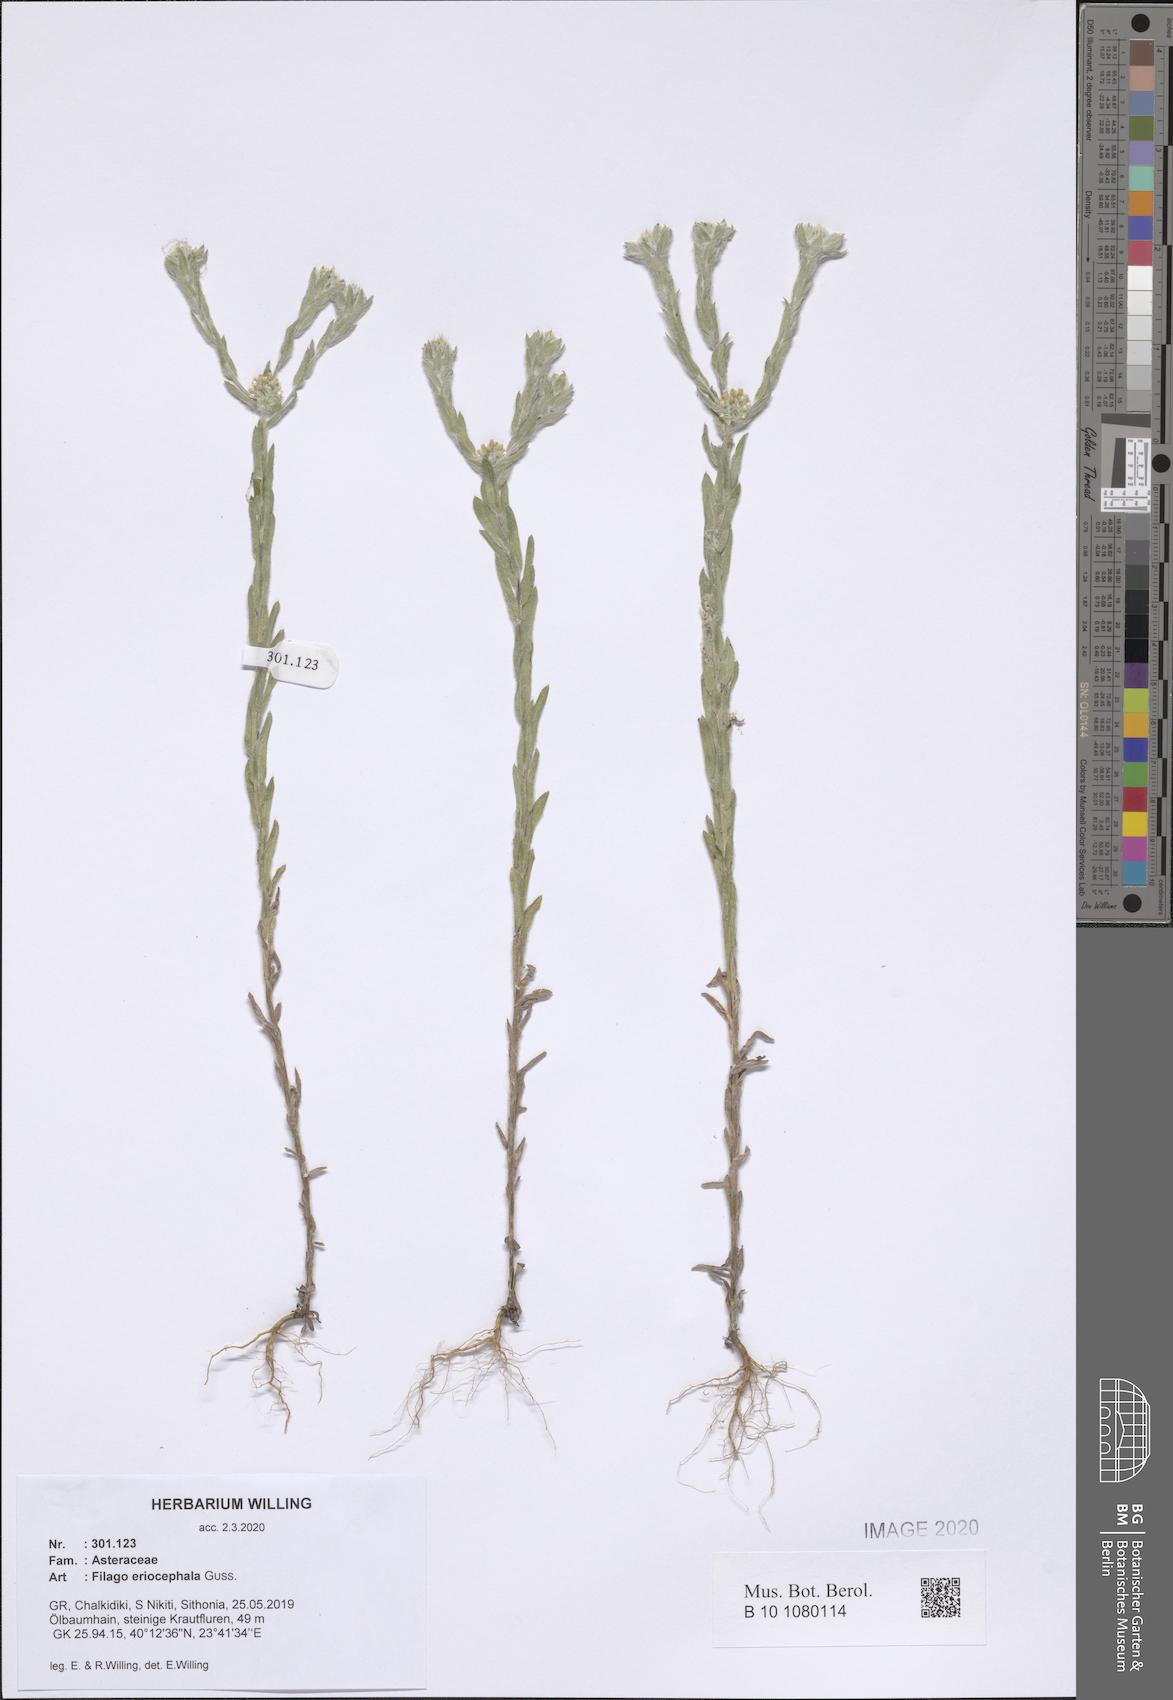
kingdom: Plantae
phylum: Tracheophyta
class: Magnoliopsida
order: Asterales
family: Asteraceae
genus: Filago
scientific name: Filago eriocephala
